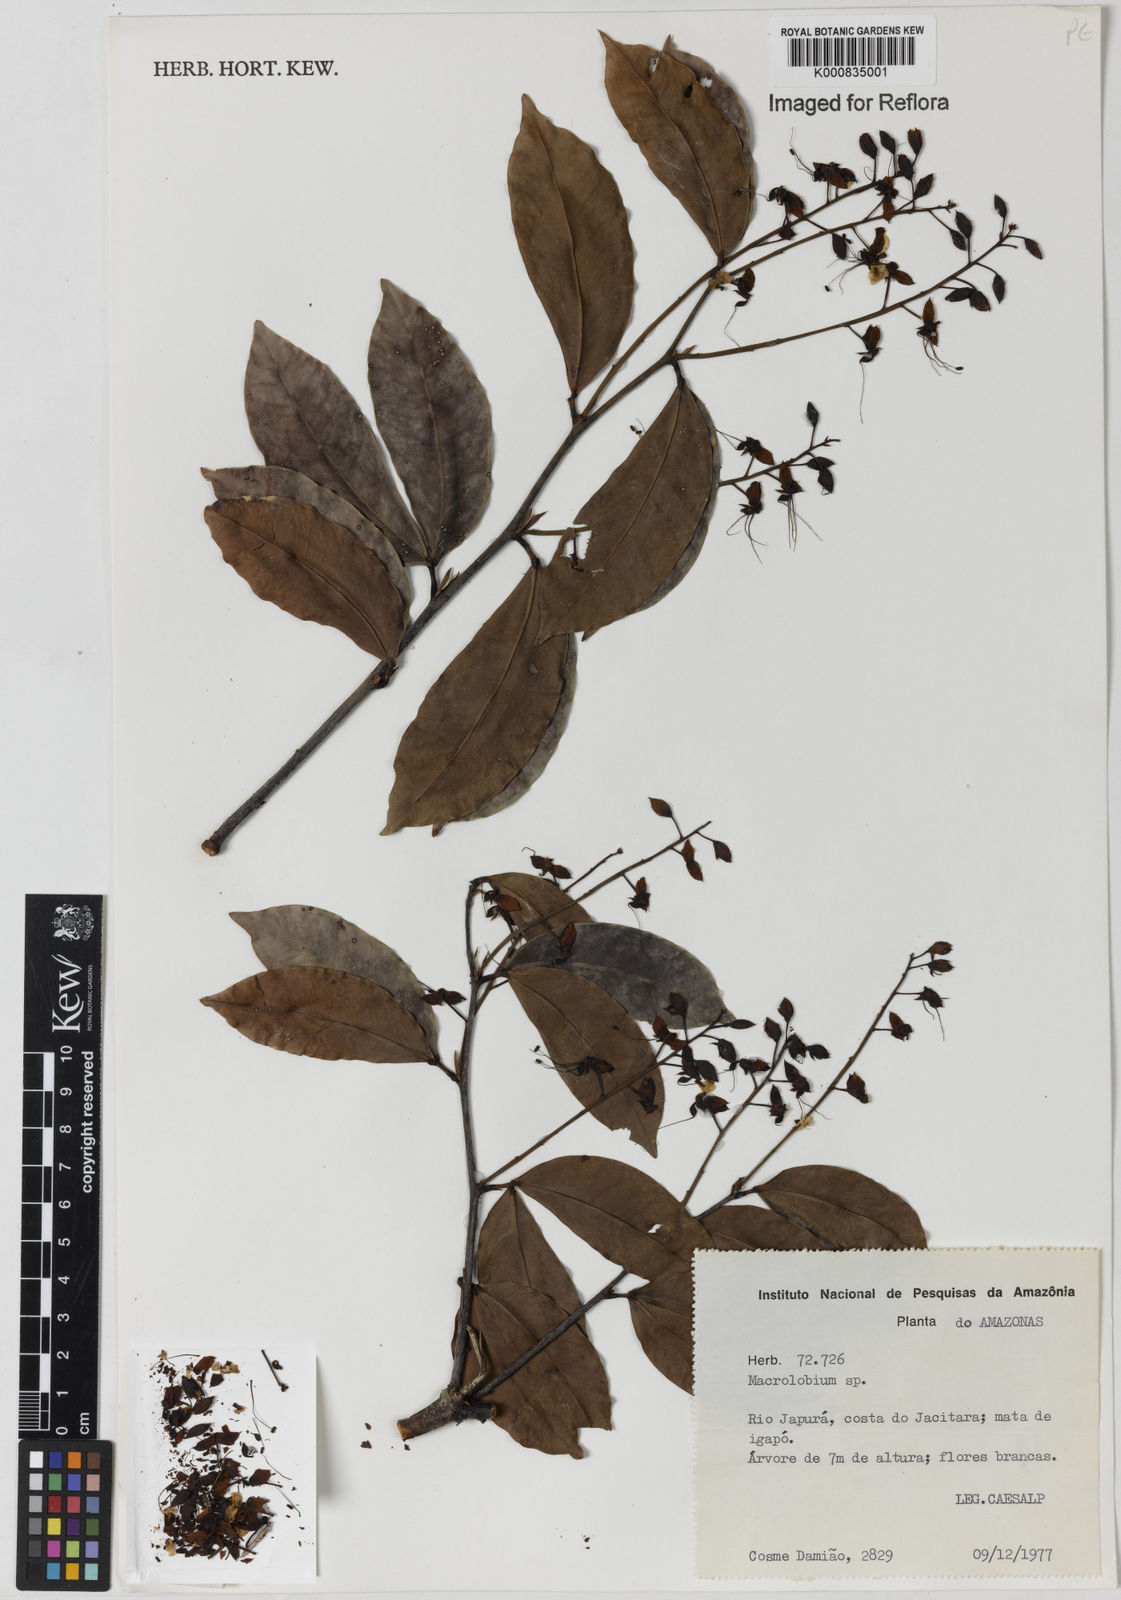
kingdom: Plantae
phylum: Tracheophyta
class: Magnoliopsida
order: Fabales
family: Fabaceae
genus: Macrolobium
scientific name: Macrolobium
